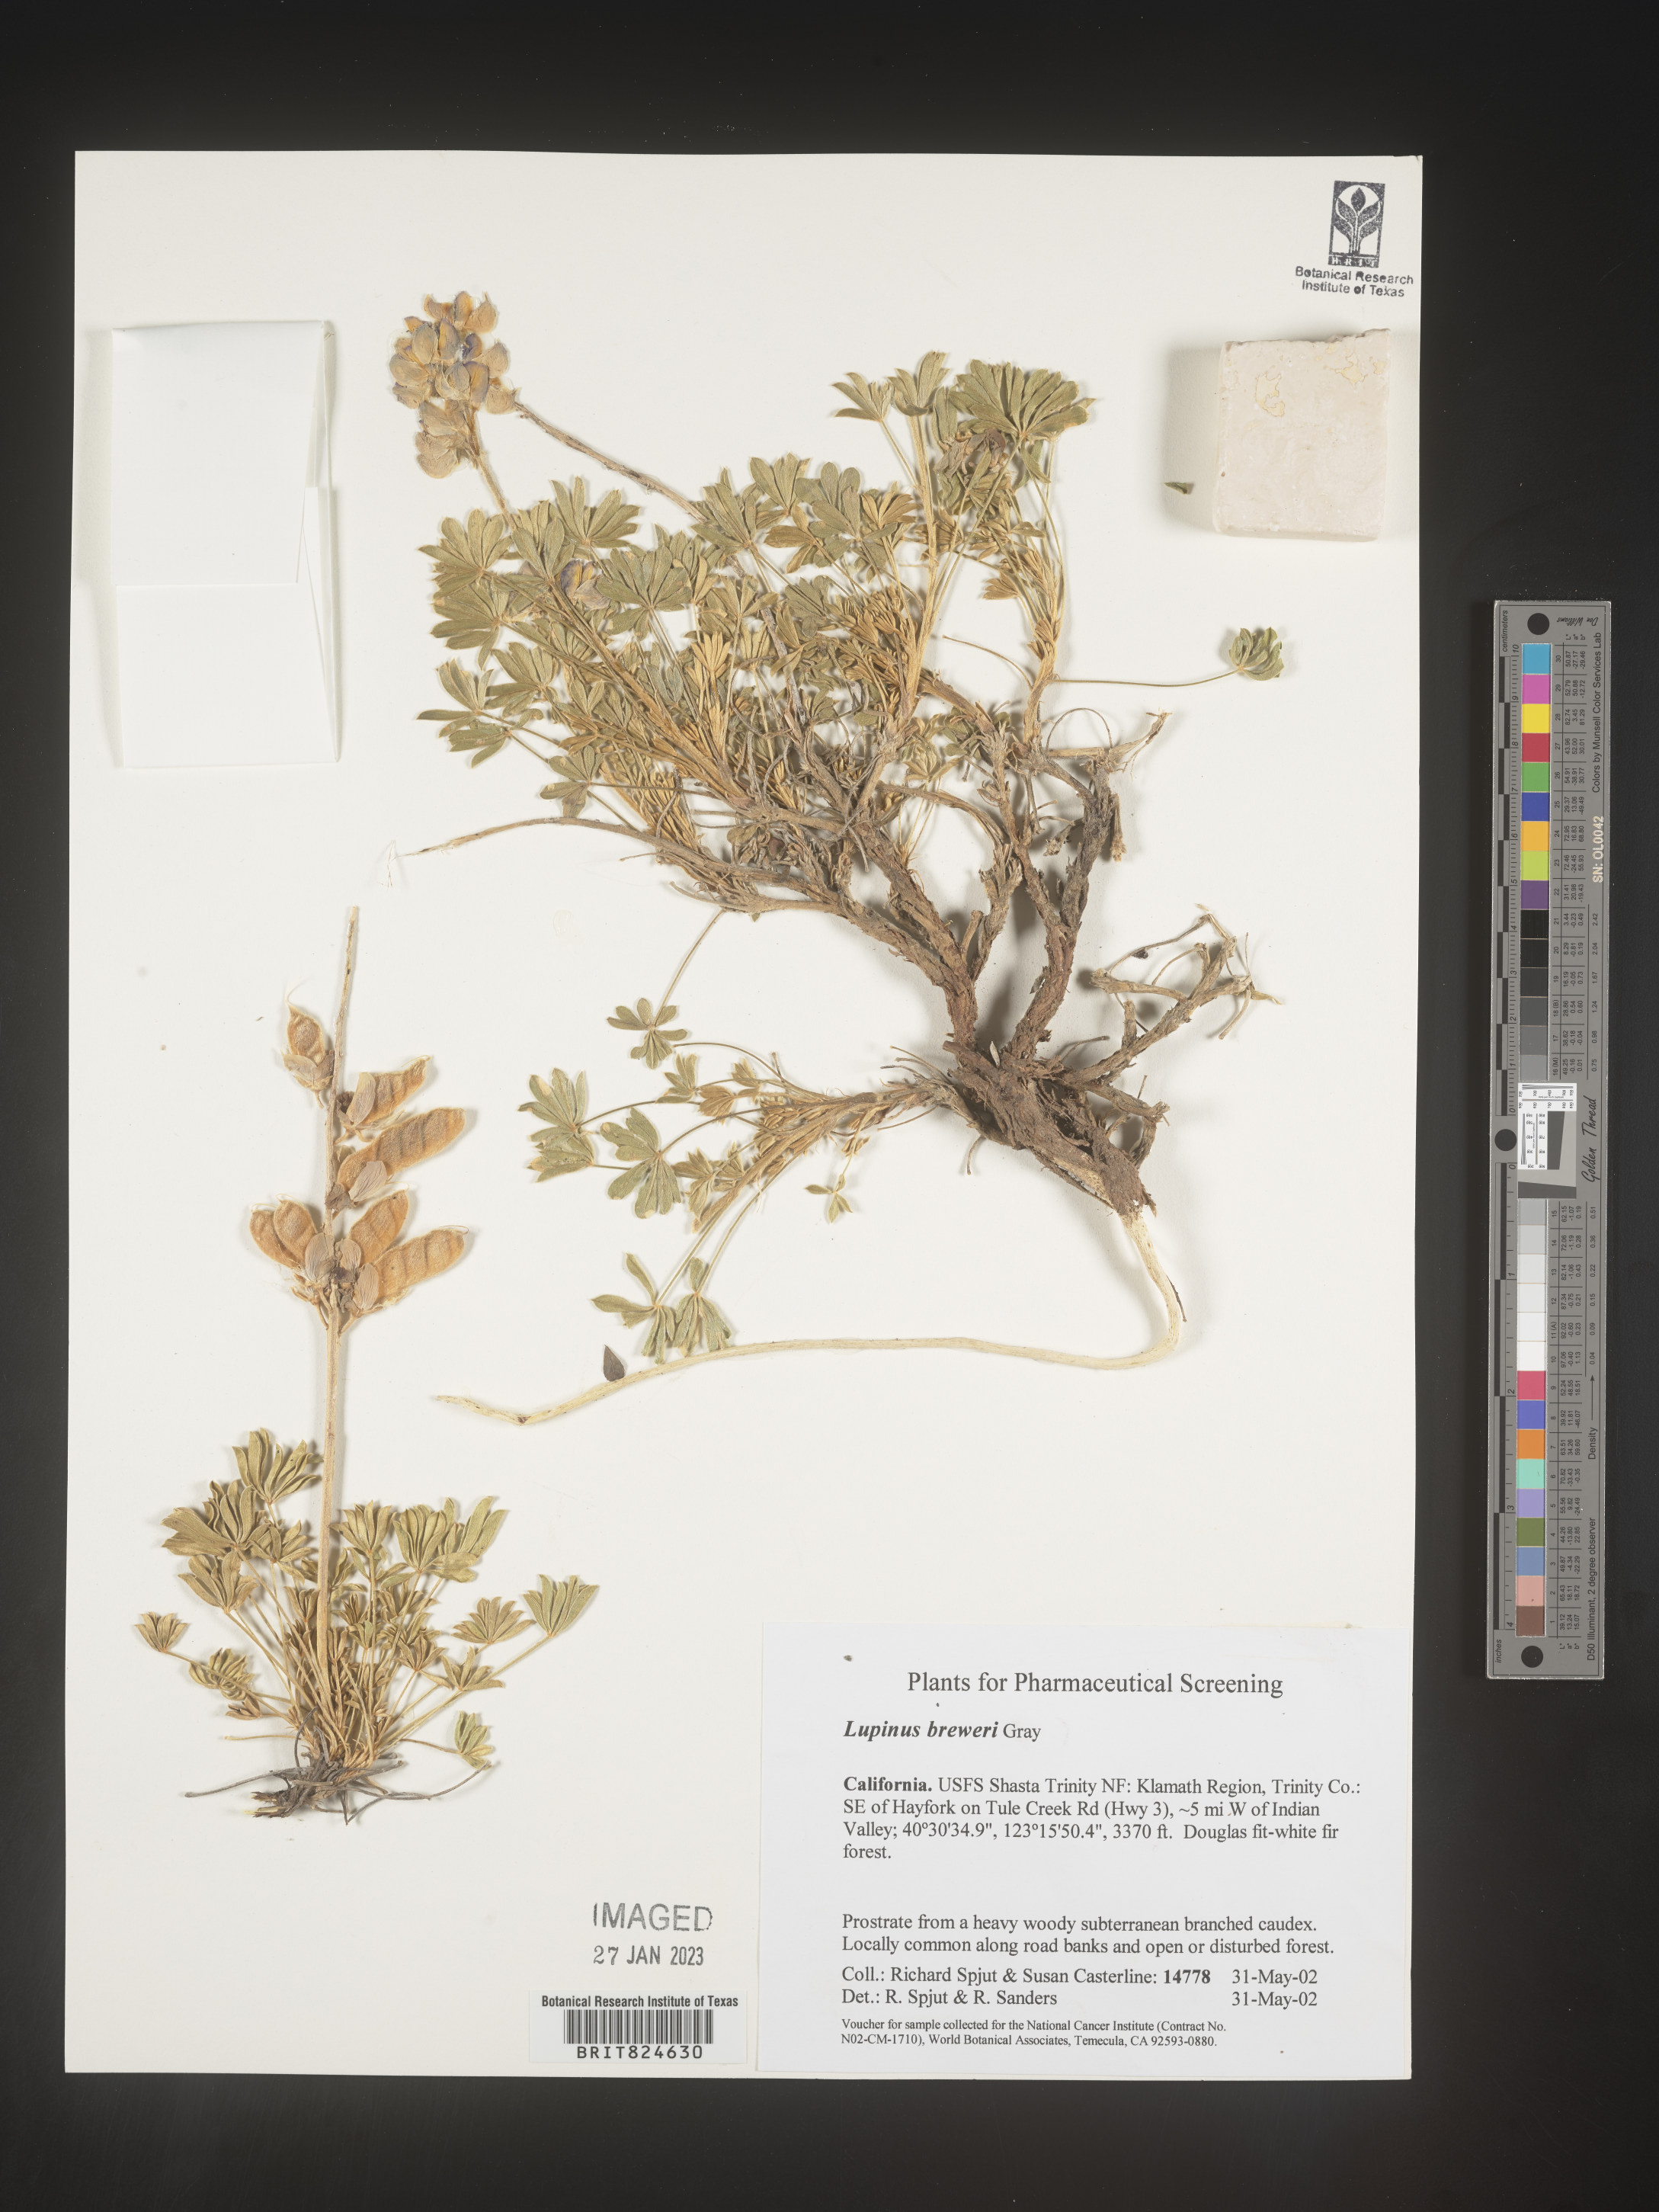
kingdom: Plantae
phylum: Tracheophyta
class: Magnoliopsida
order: Fabales
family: Fabaceae
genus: Lupinus
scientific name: Lupinus
